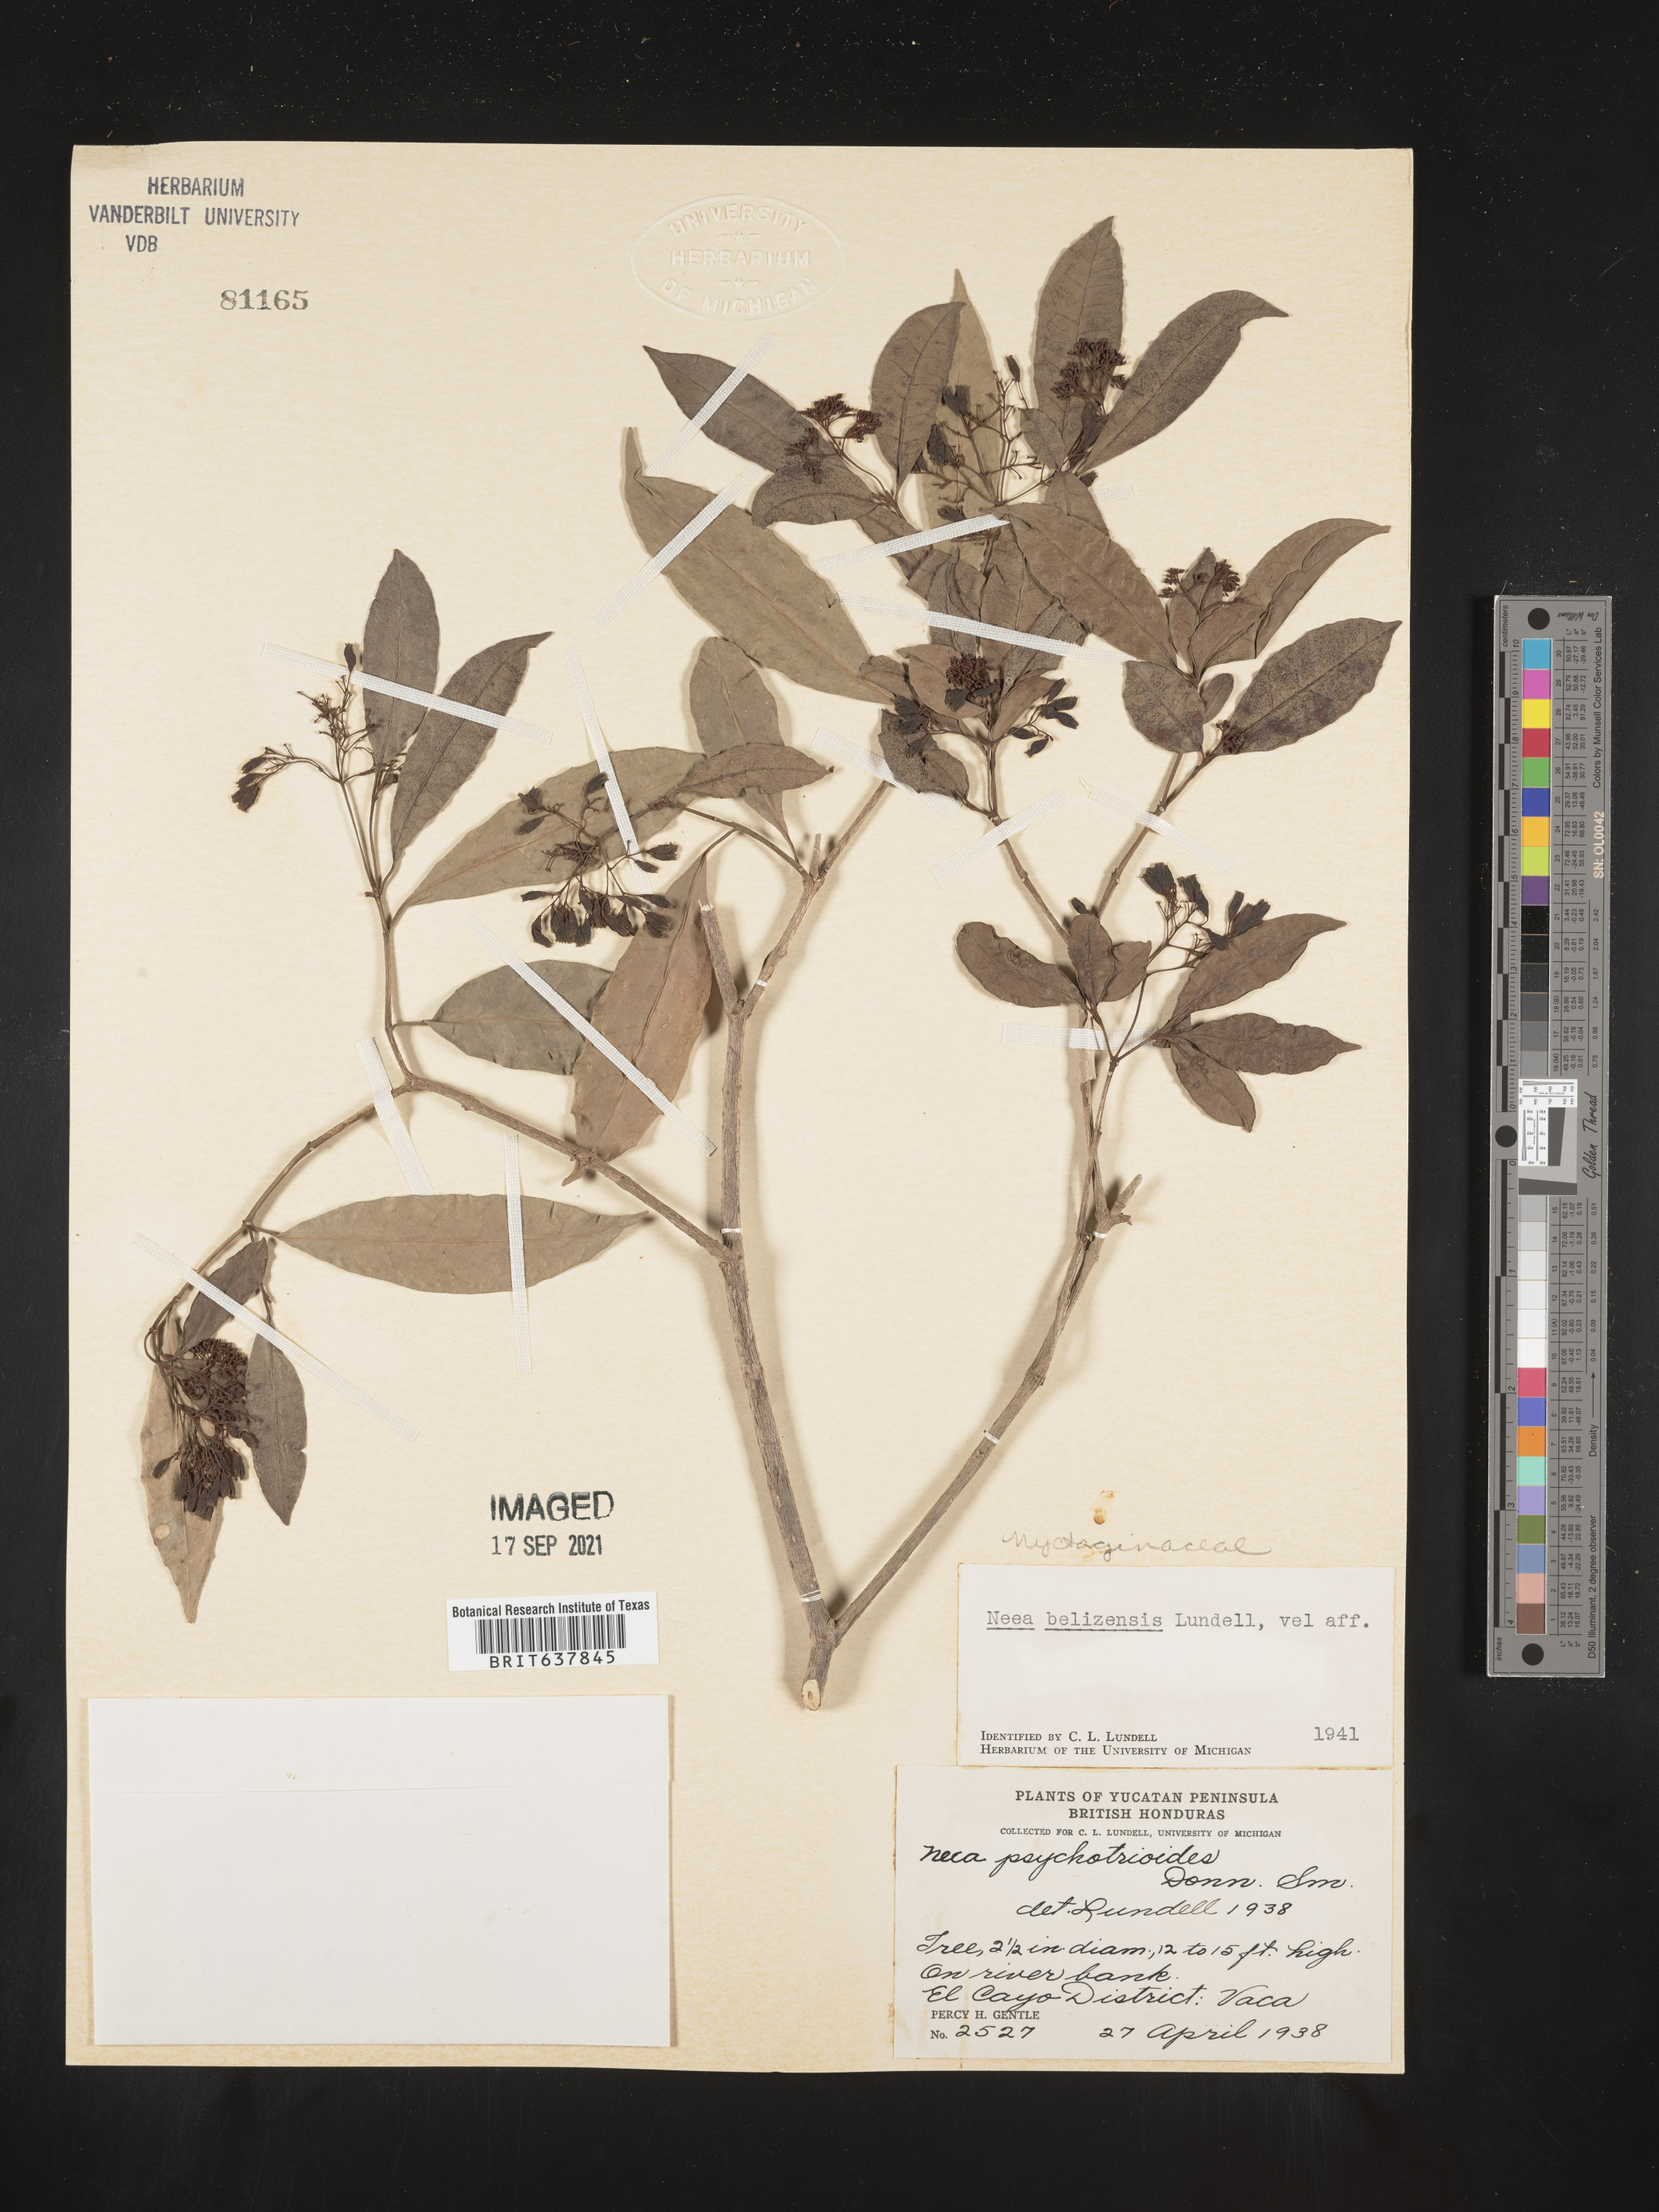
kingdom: Plantae
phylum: Tracheophyta
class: Magnoliopsida
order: Caryophyllales
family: Nyctaginaceae
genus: Neea
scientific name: Neea
